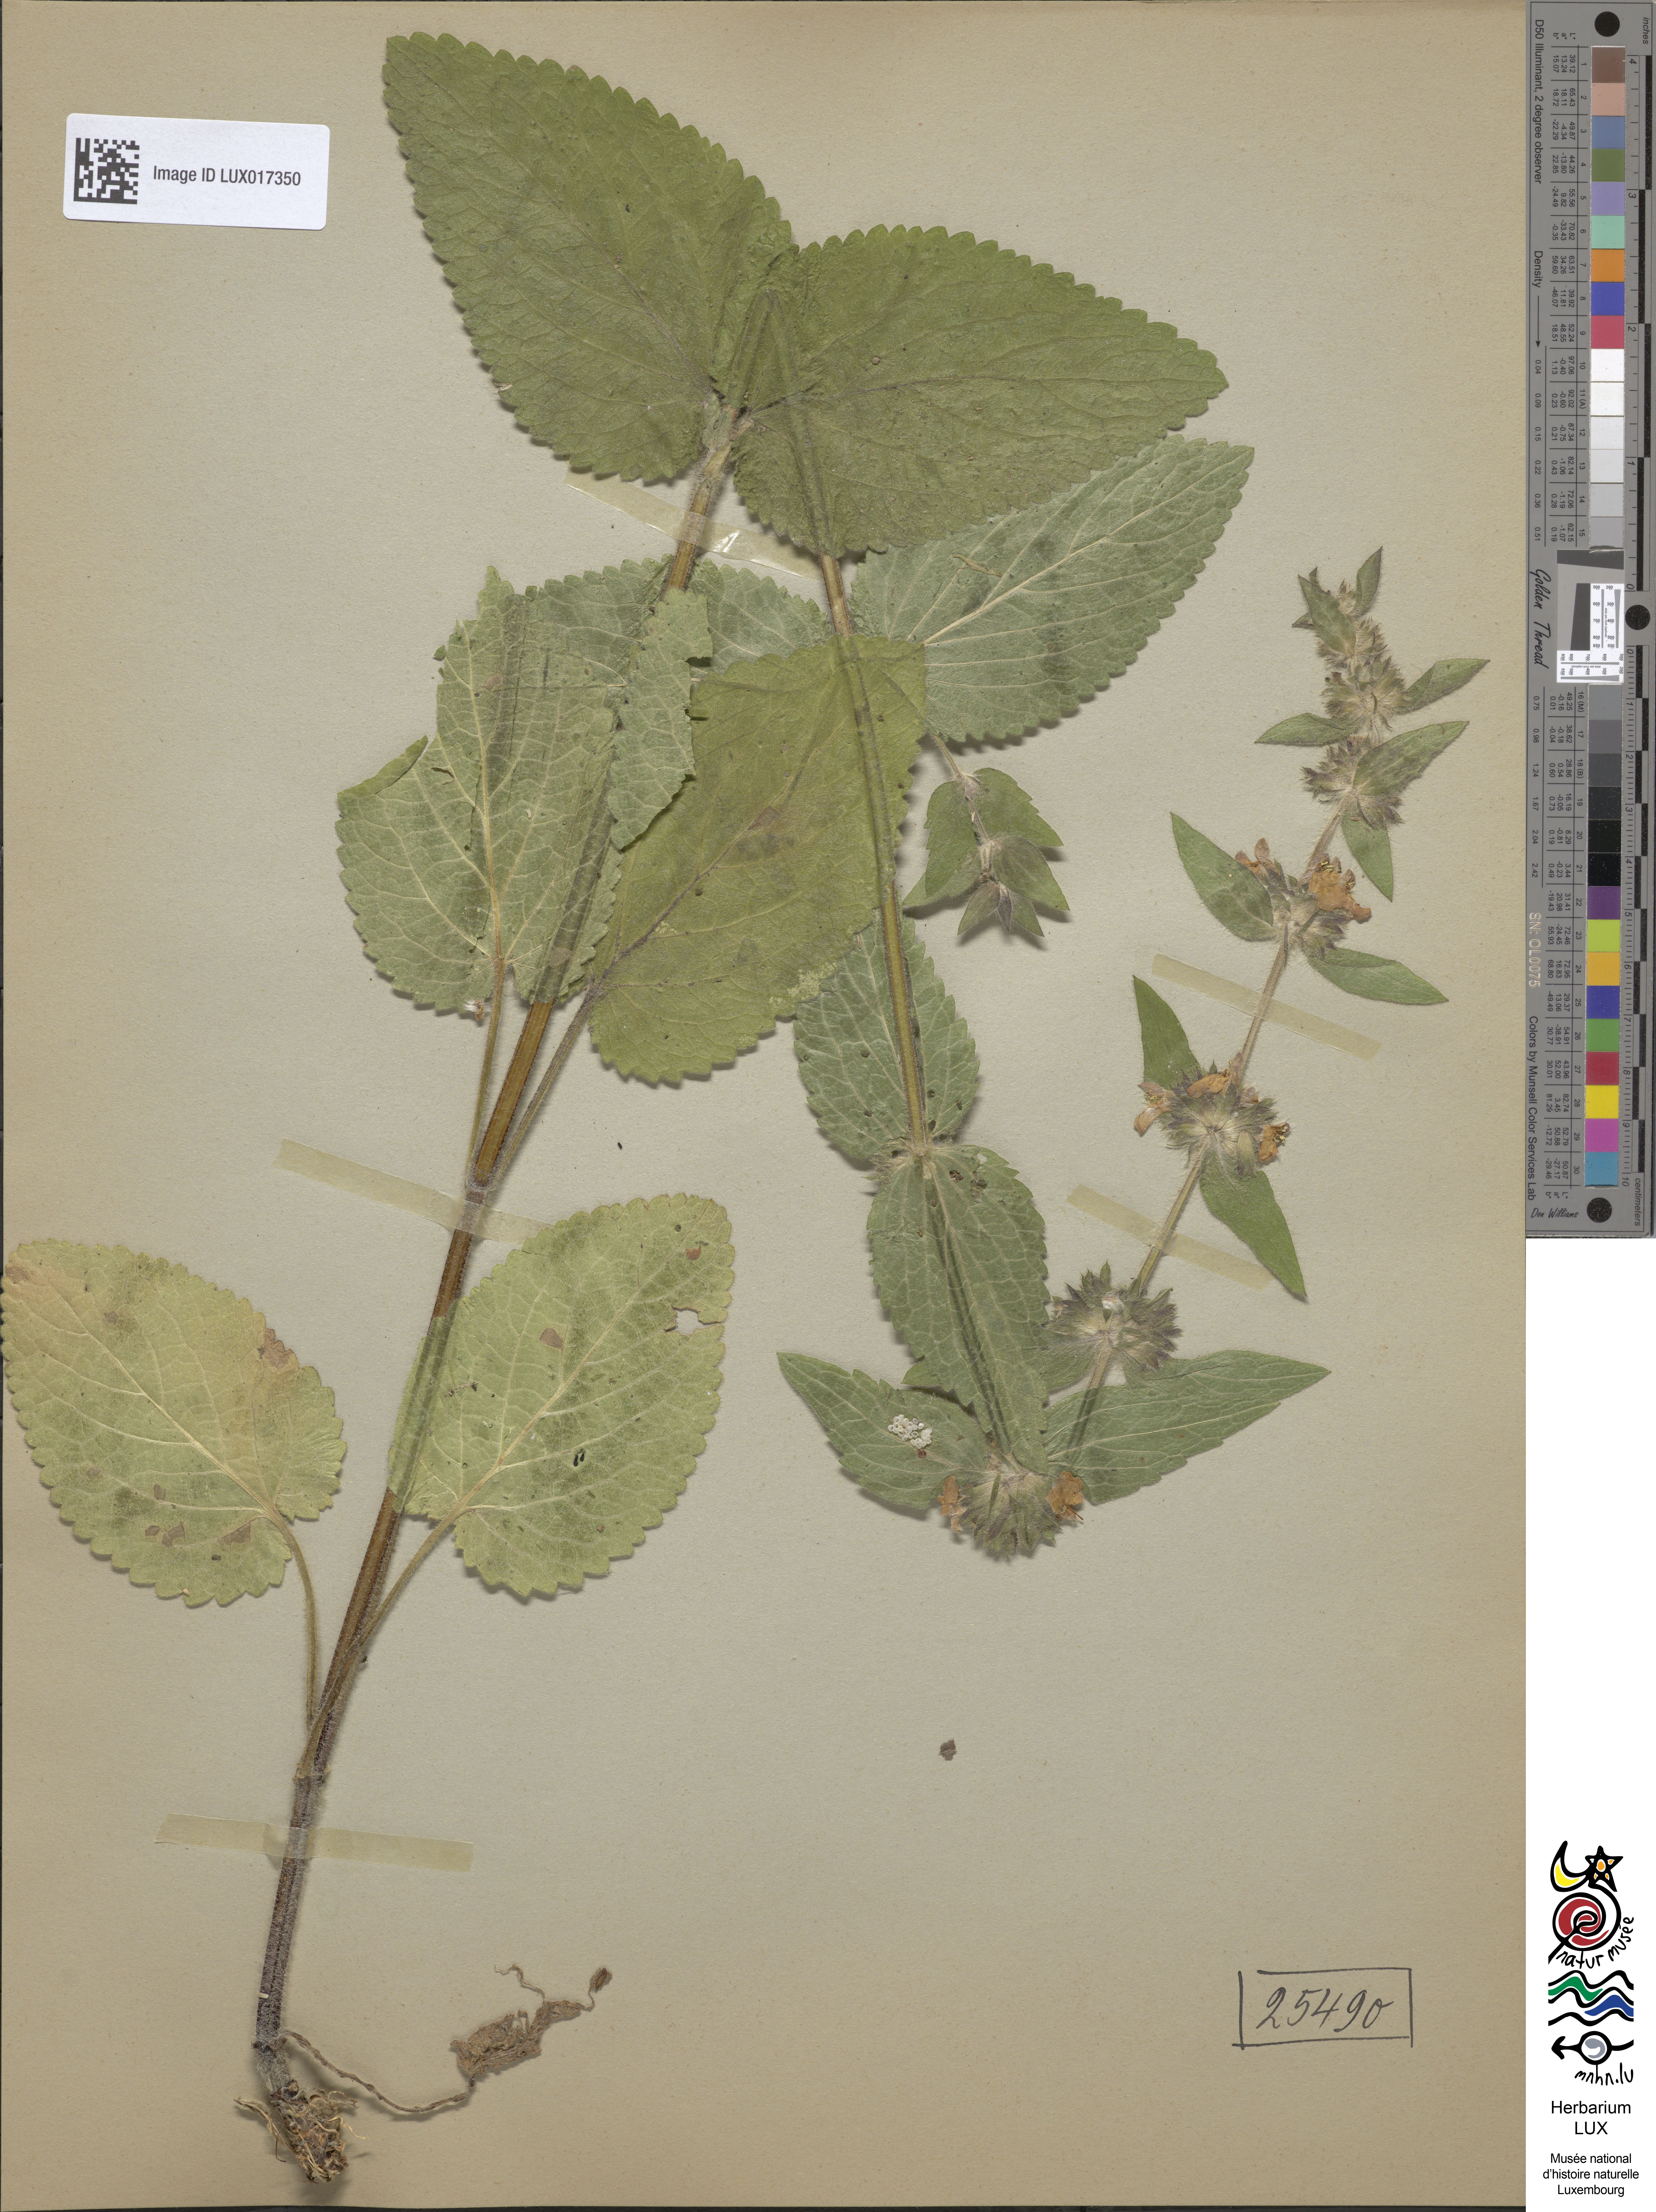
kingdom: Plantae
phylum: Tracheophyta
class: Magnoliopsida
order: Lamiales
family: Lamiaceae
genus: Stachys
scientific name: Stachys alpina
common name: Limestone woundwort
